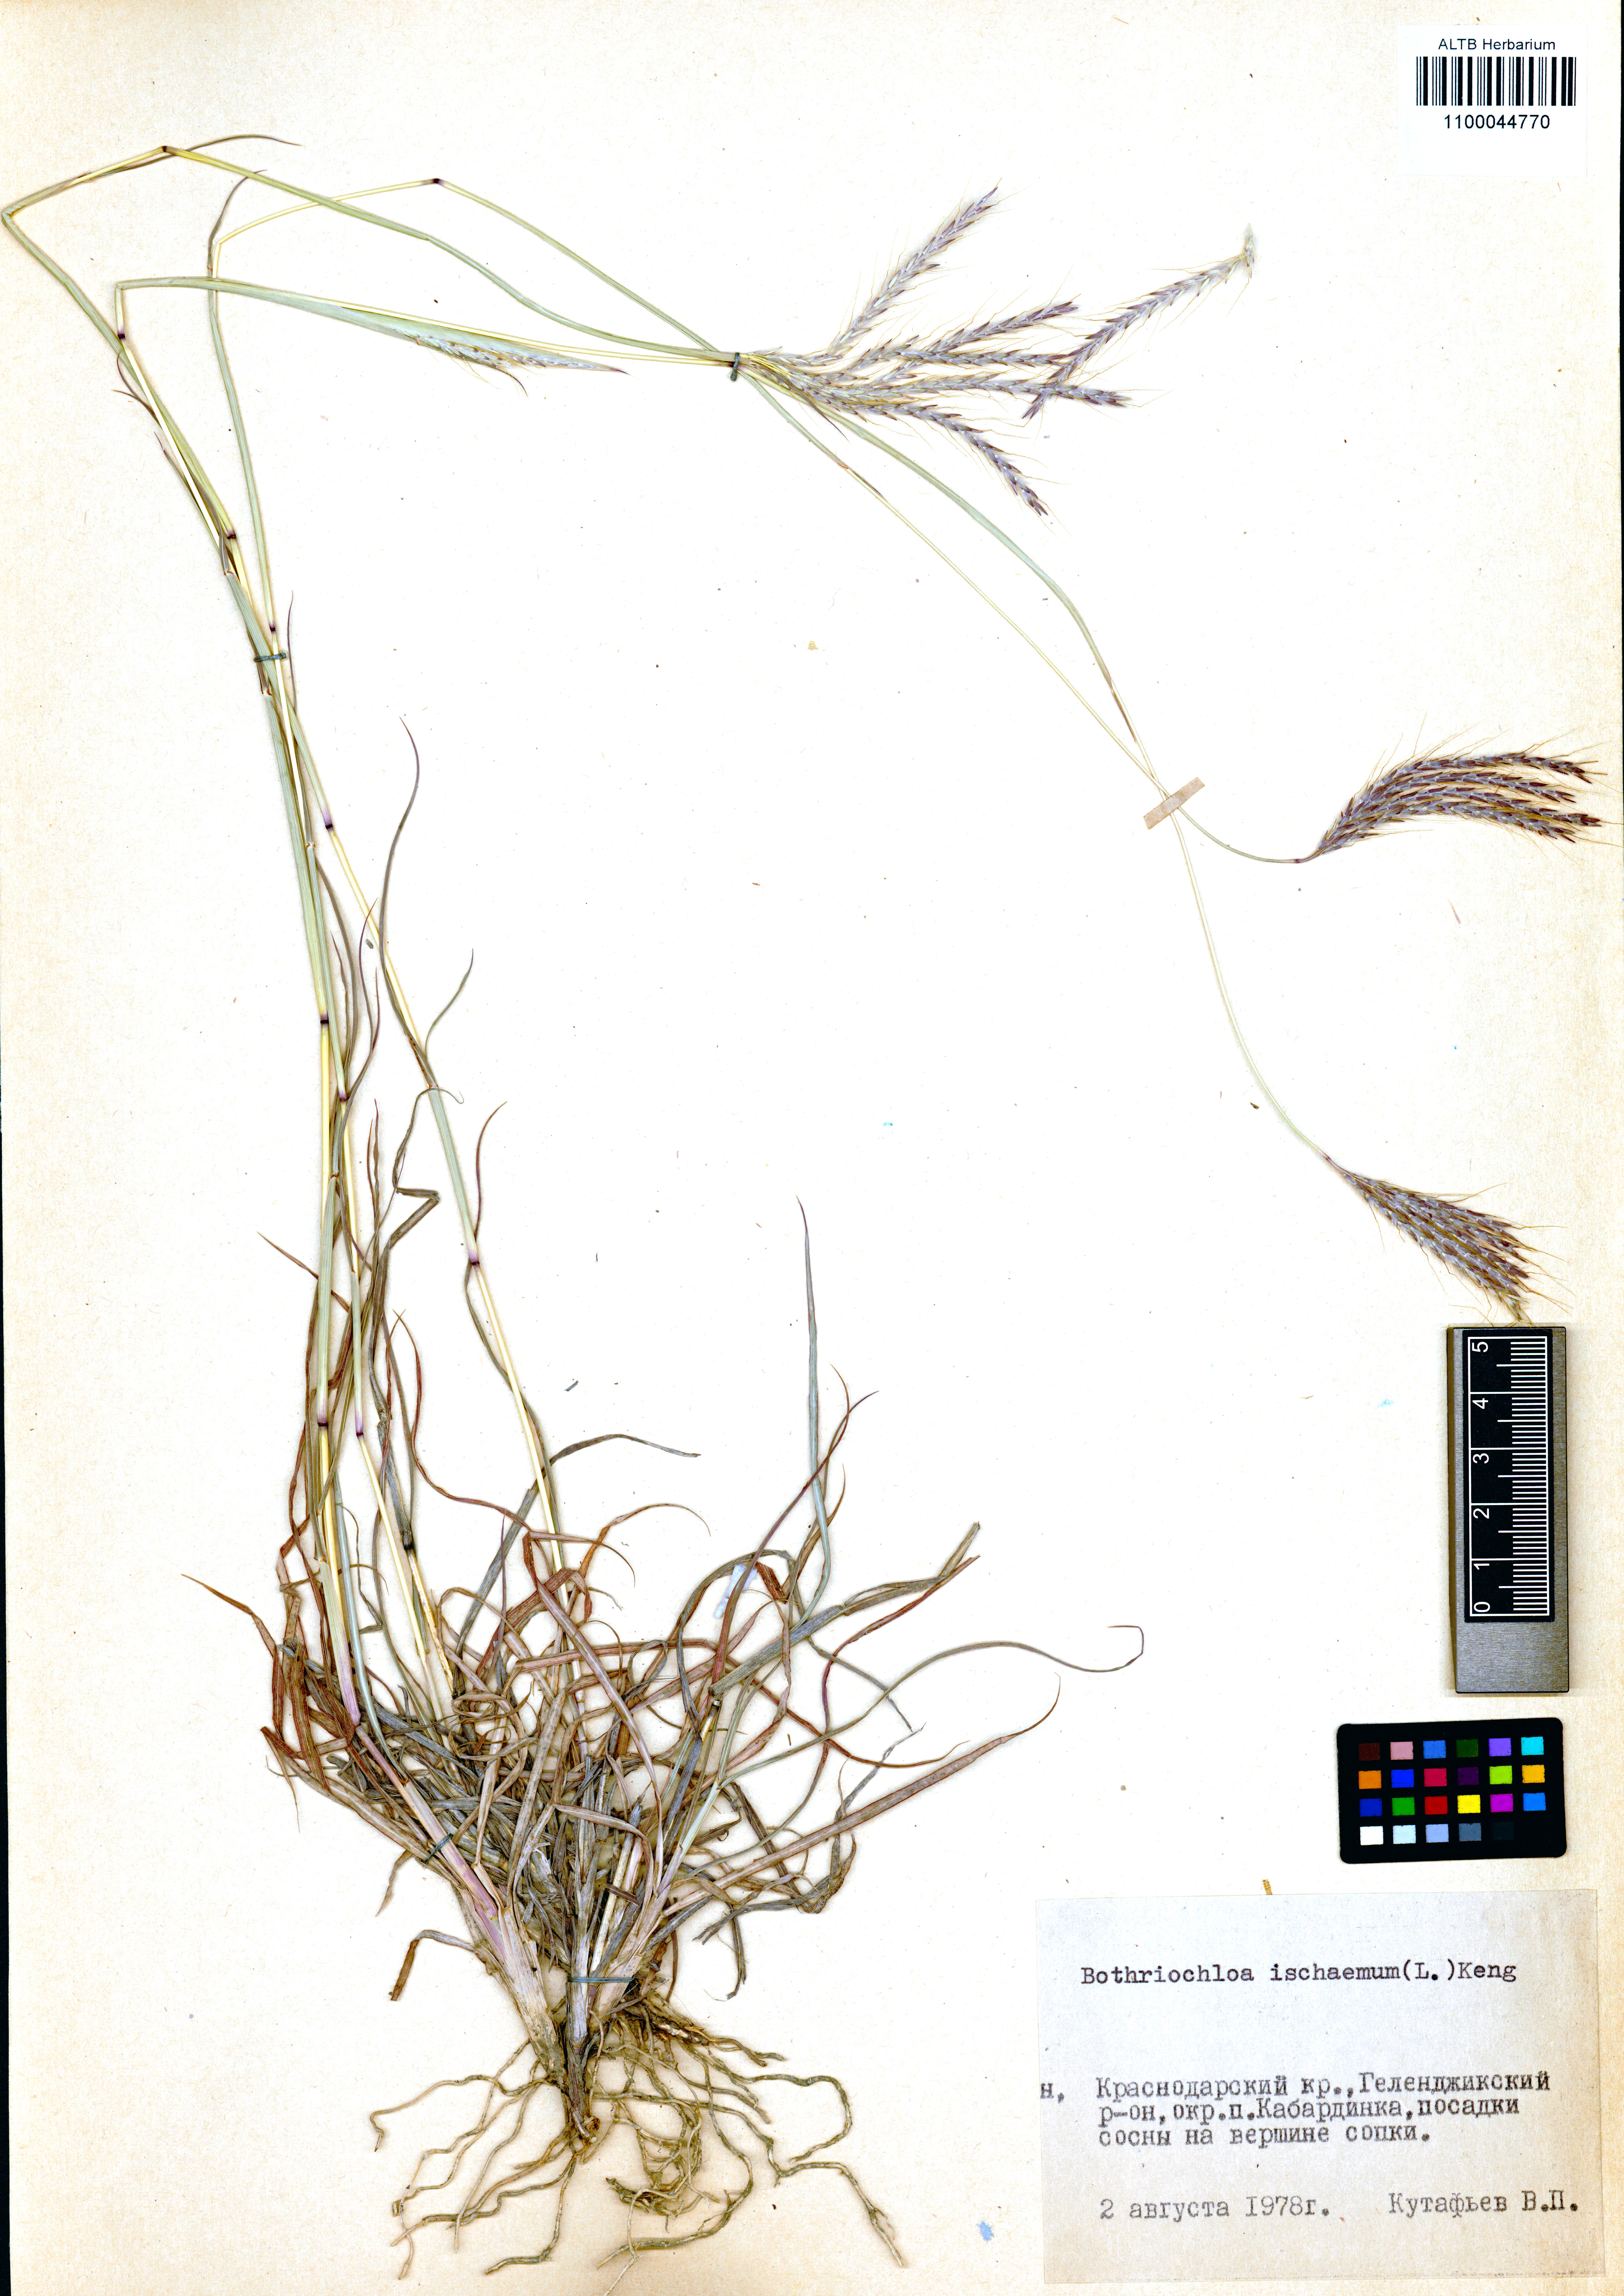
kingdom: Plantae
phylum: Tracheophyta
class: Liliopsida
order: Poales
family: Poaceae
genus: Cynodon
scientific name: Cynodon dactylon
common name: Bermuda grass
